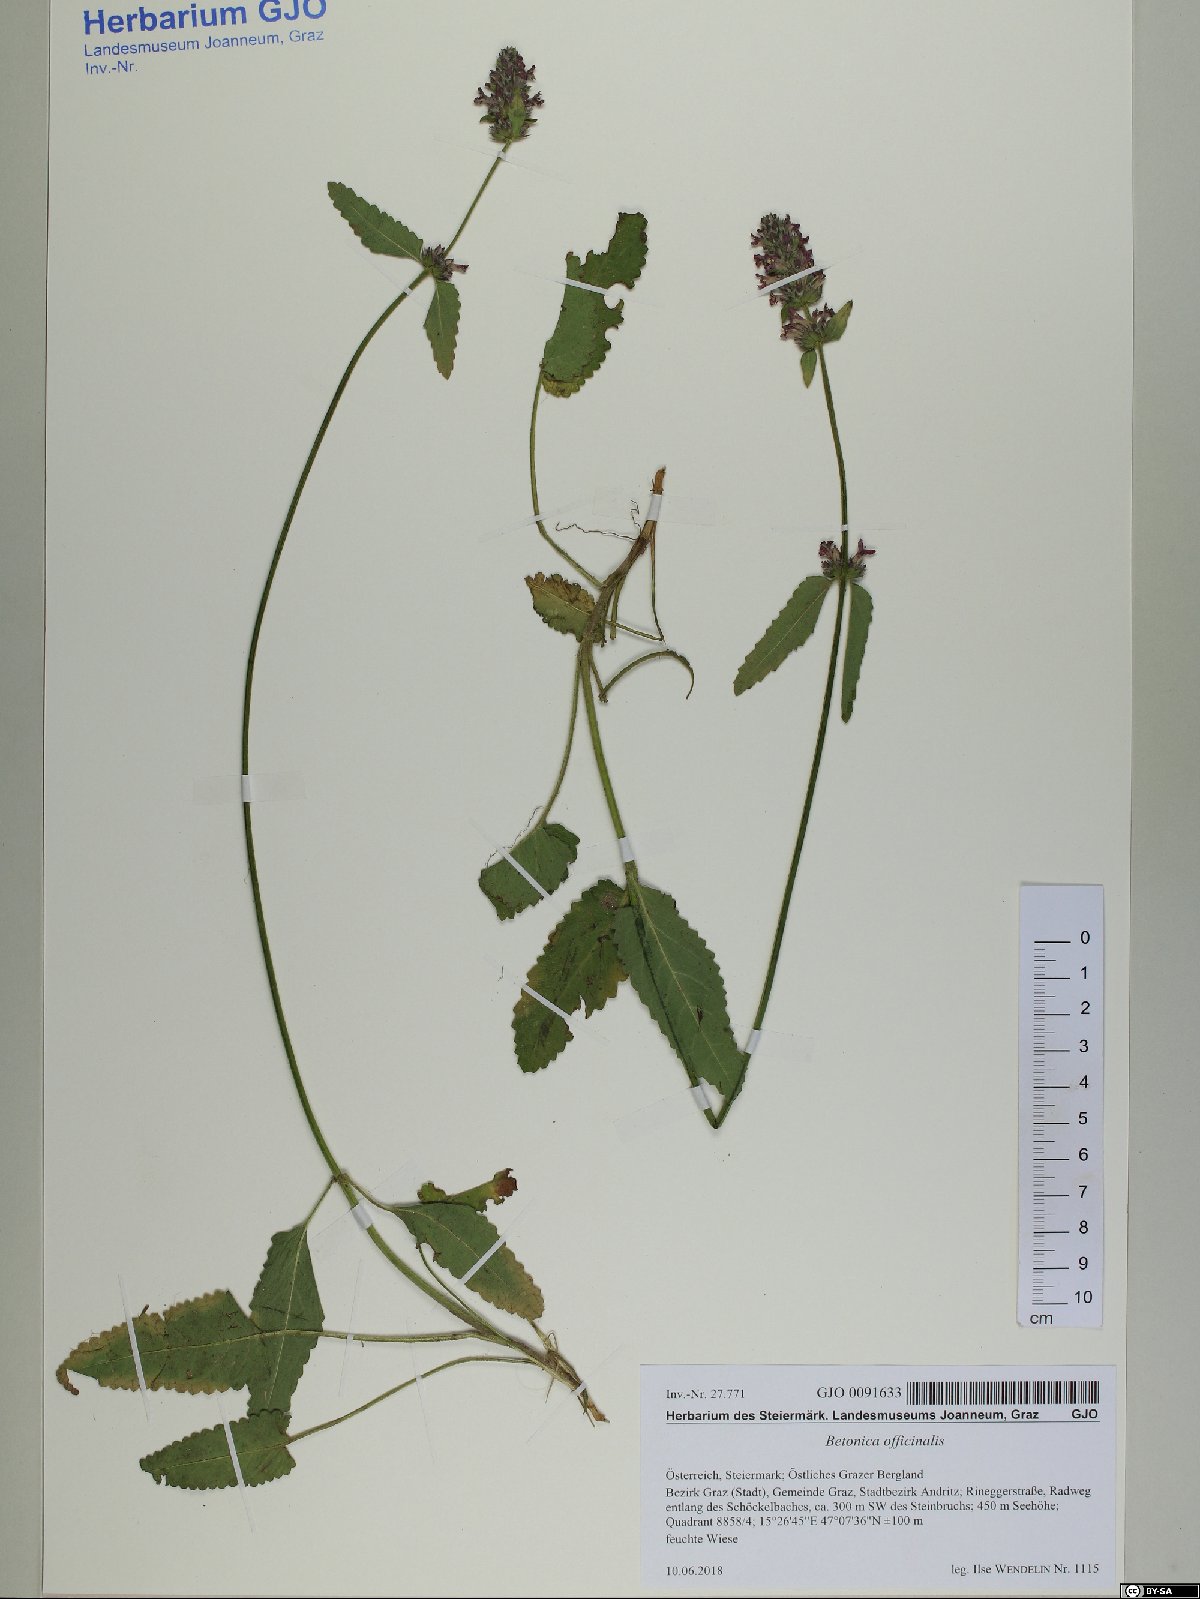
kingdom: Plantae
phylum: Tracheophyta
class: Magnoliopsida
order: Lamiales
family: Lamiaceae
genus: Betonica
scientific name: Betonica officinalis
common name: Bishop's-wort
